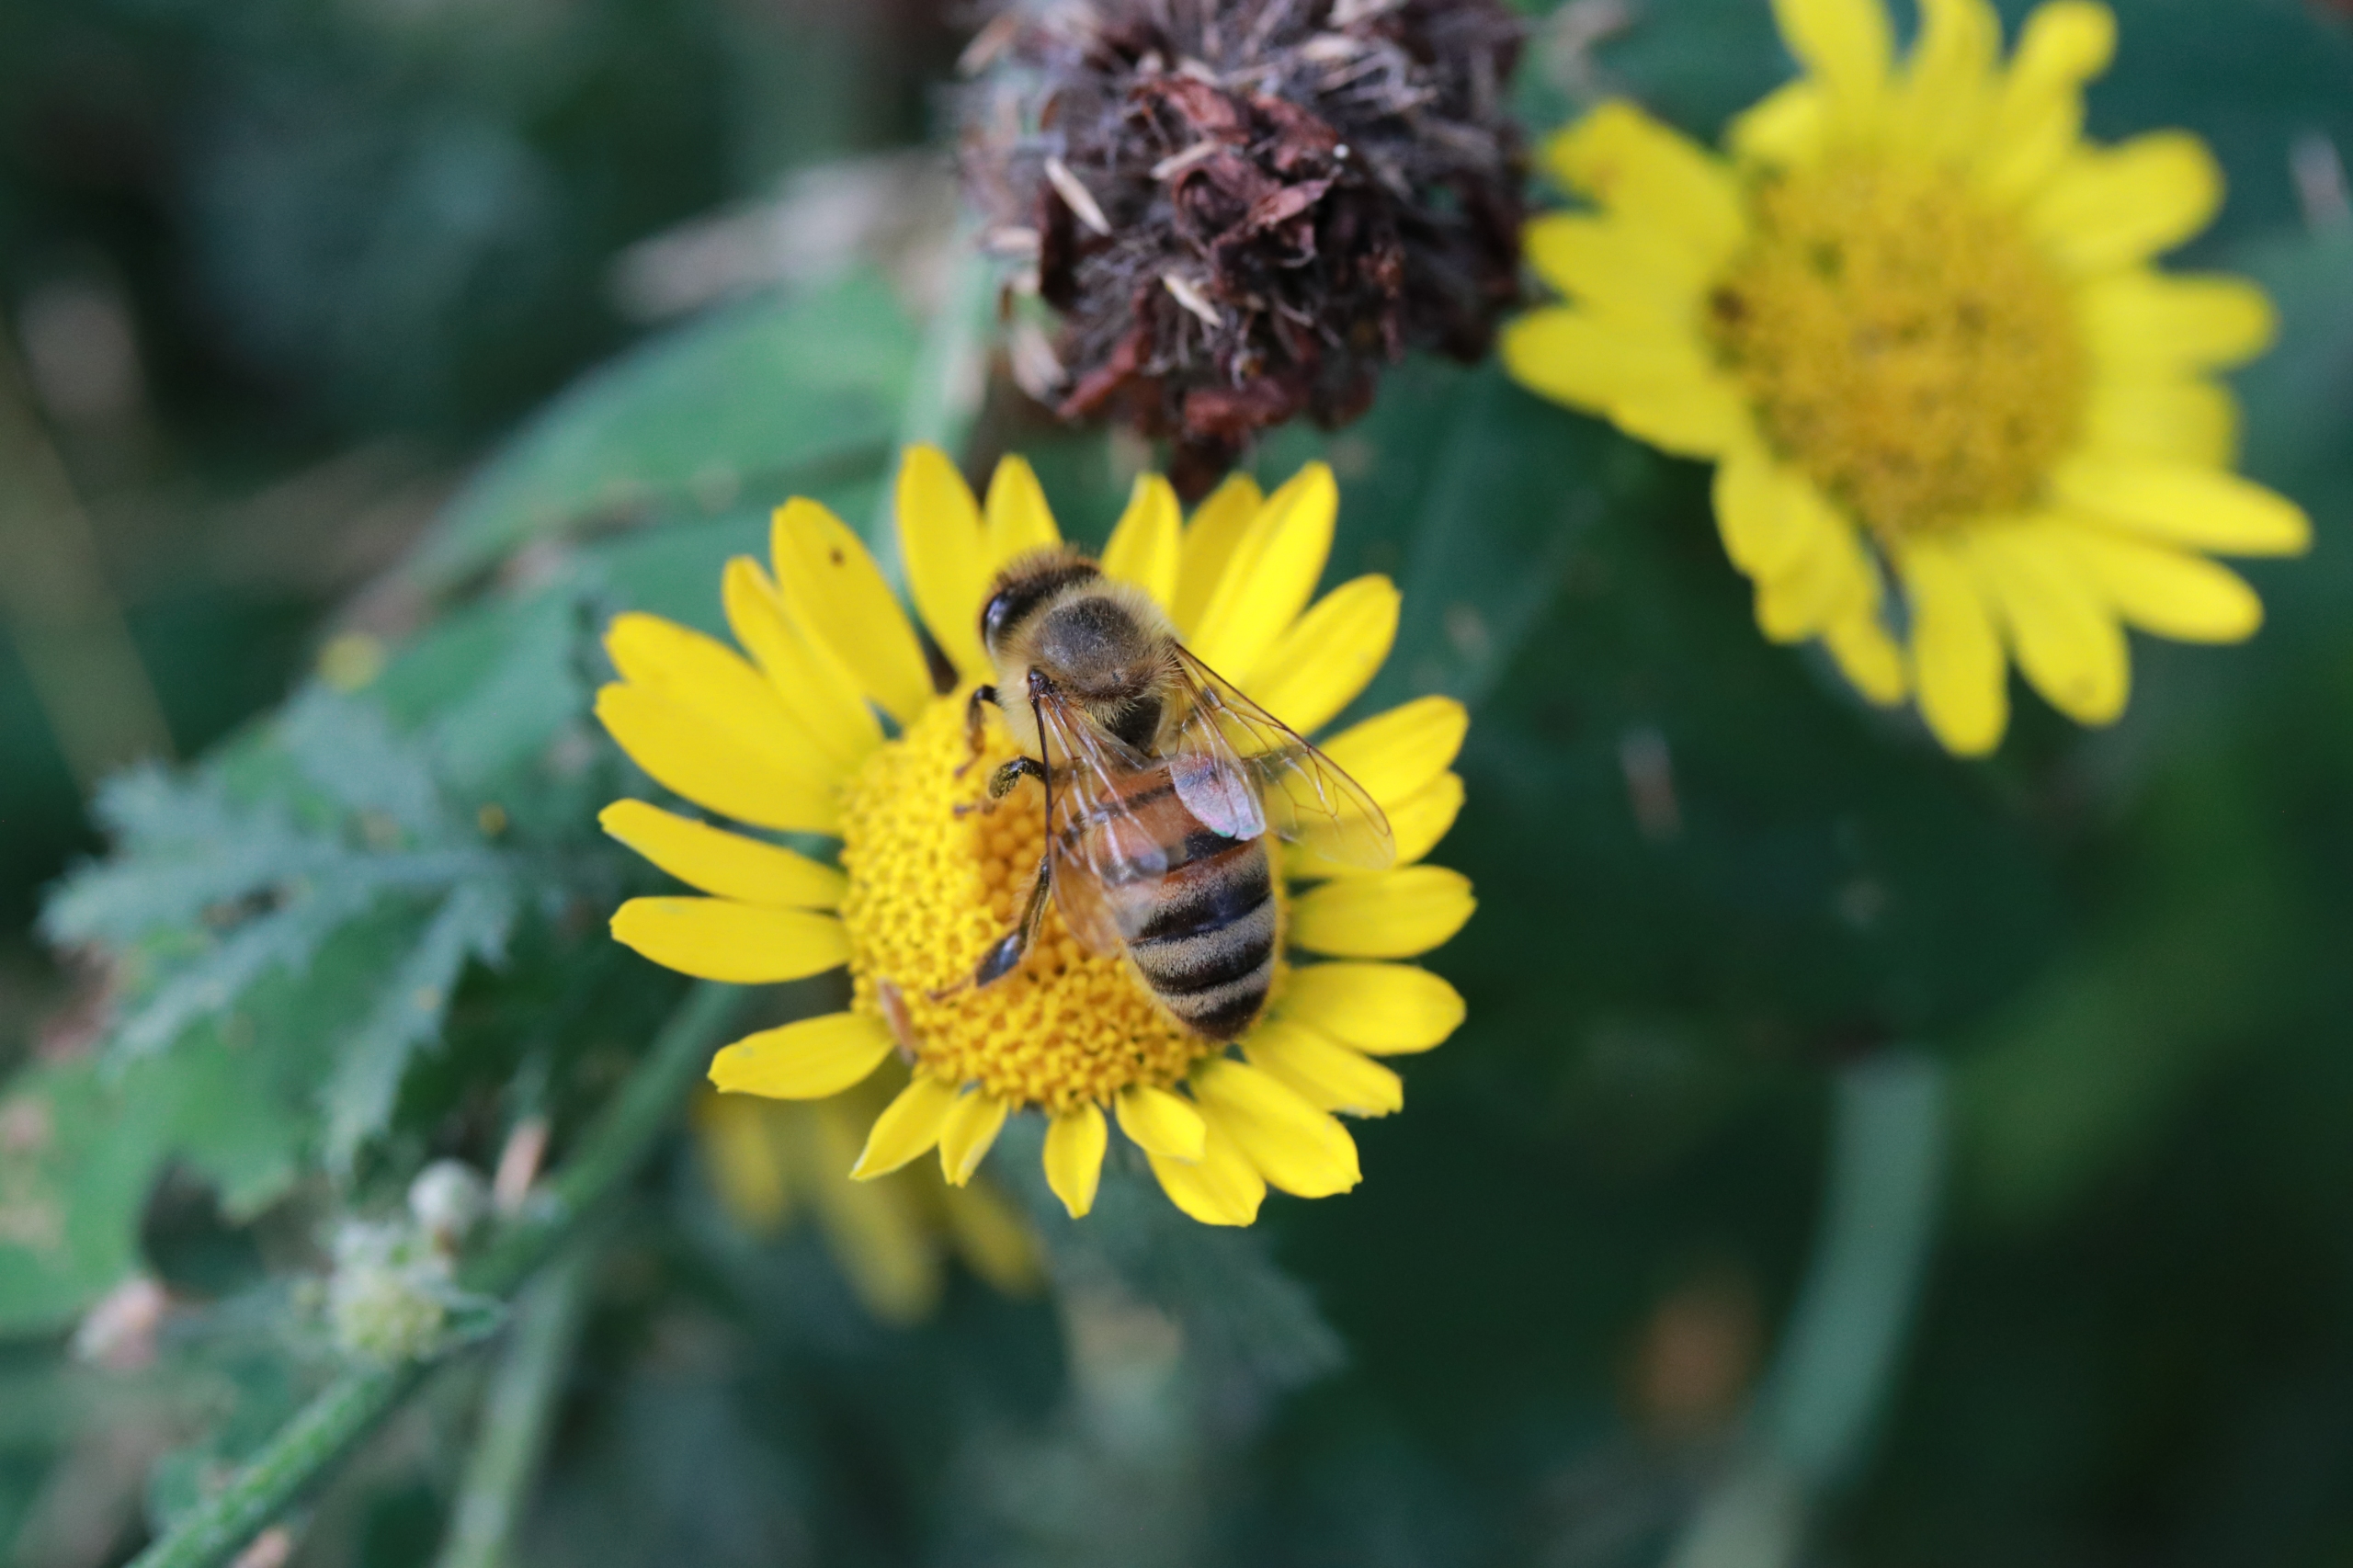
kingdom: Animalia
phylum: Arthropoda
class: Insecta
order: Hymenoptera
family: Apidae
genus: Apis
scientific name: Apis mellifera
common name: Honningbi
